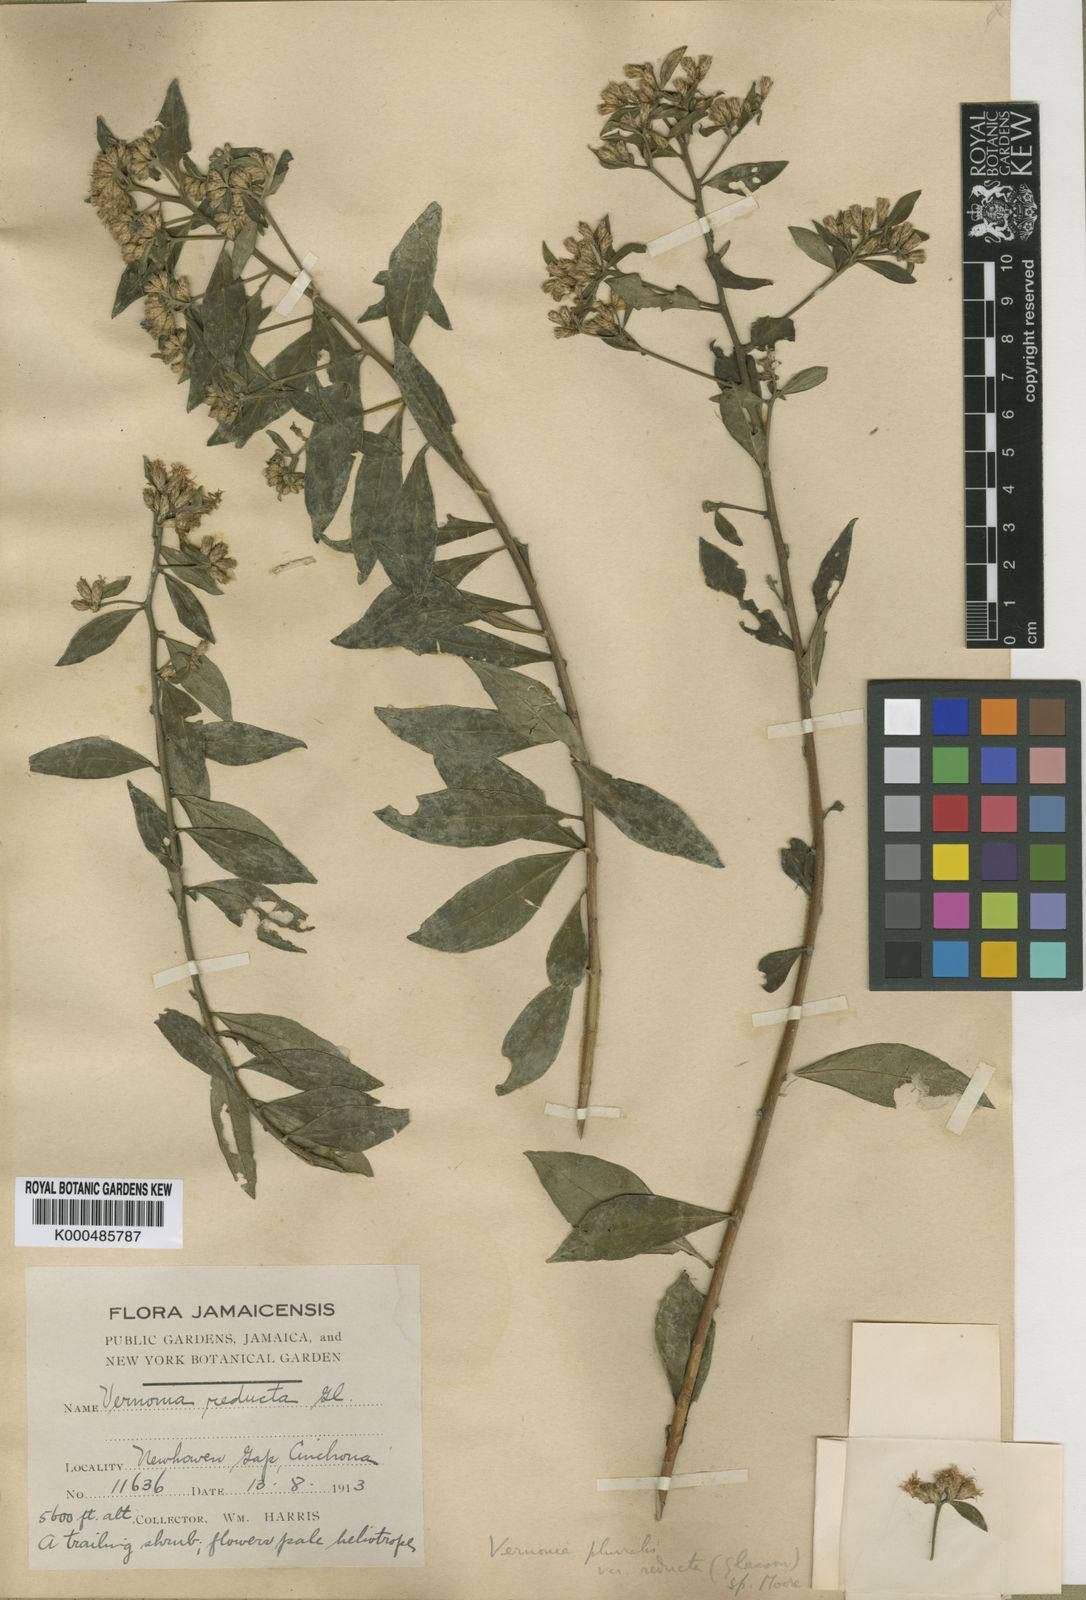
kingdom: Plantae
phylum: Tracheophyta
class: Magnoliopsida
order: Asterales
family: Asteraceae
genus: Lepidaploa
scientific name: Lepidaploa pluvialis
